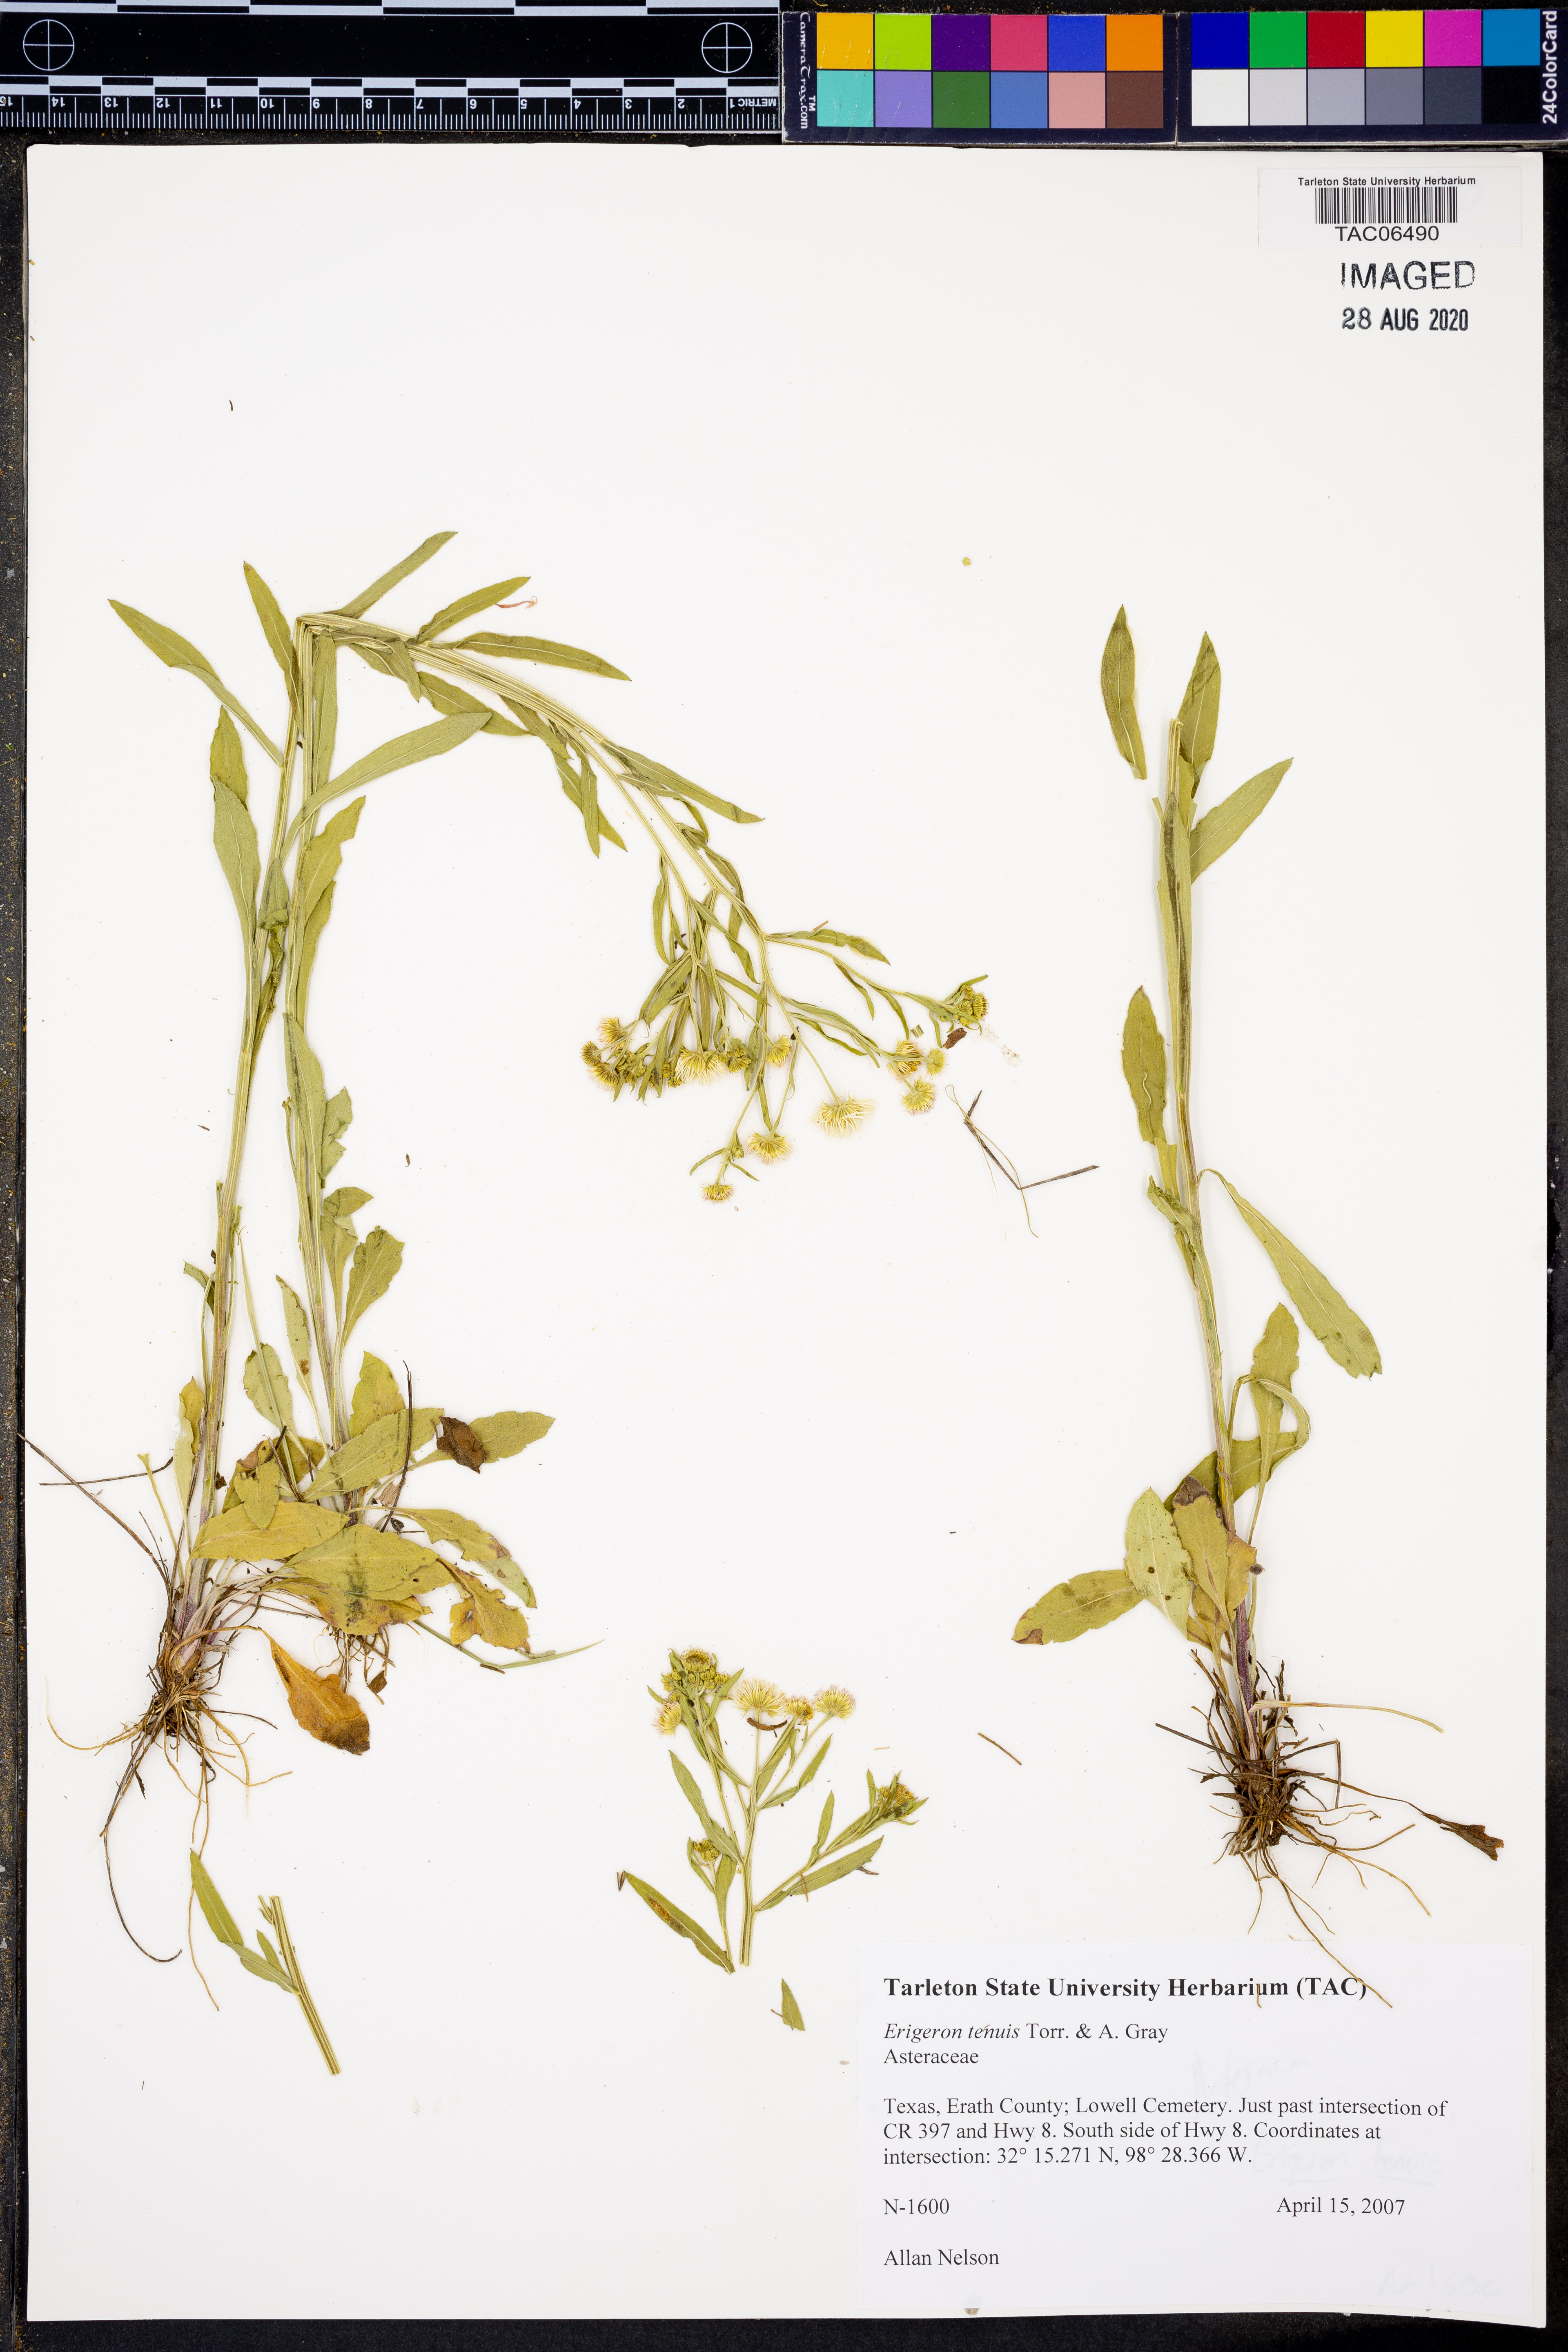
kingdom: Plantae
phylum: Tracheophyta
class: Magnoliopsida
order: Asterales
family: Asteraceae
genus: Erigeron
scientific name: Erigeron tenuis
